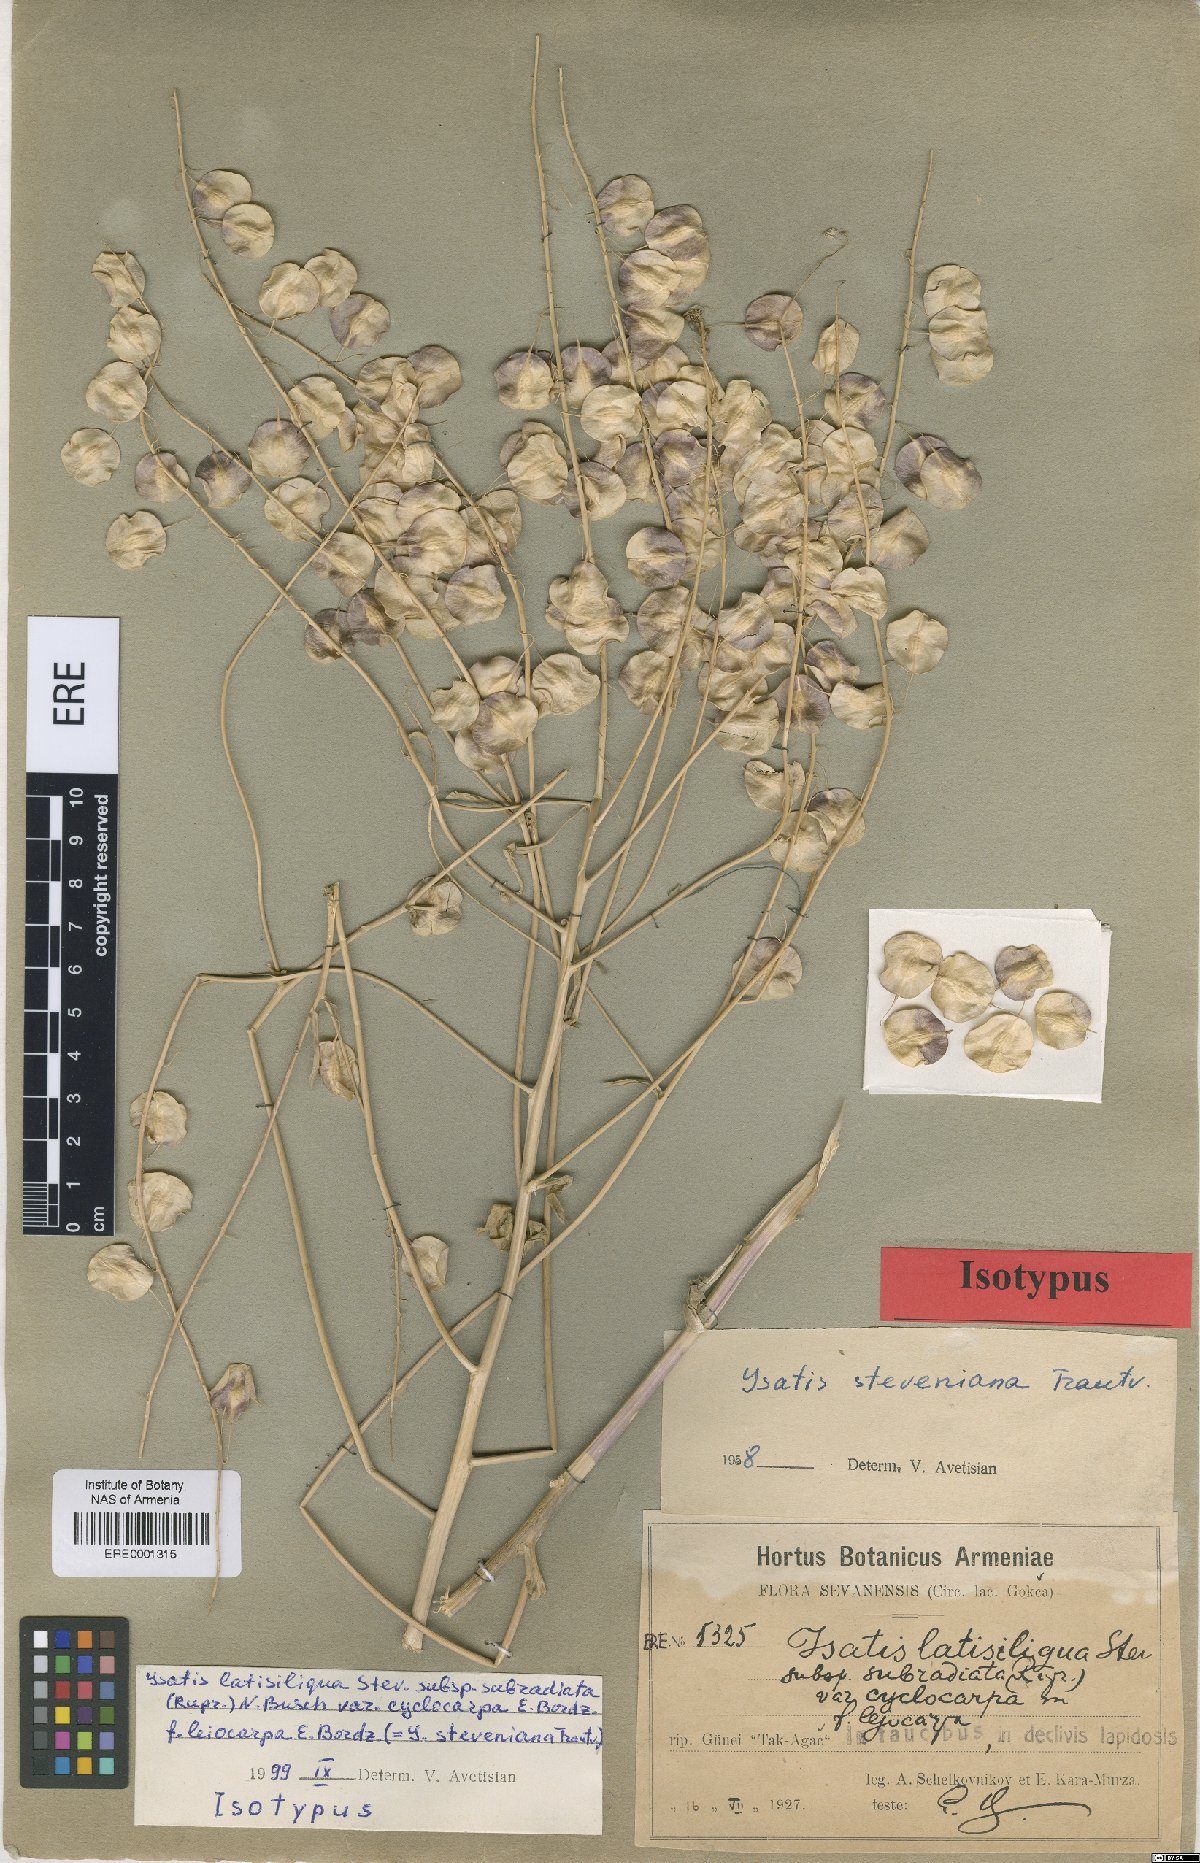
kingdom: Plantae
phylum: Tracheophyta
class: Magnoliopsida
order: Brassicales
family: Brassicaceae
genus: Isatis
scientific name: Isatis latisiliqua
